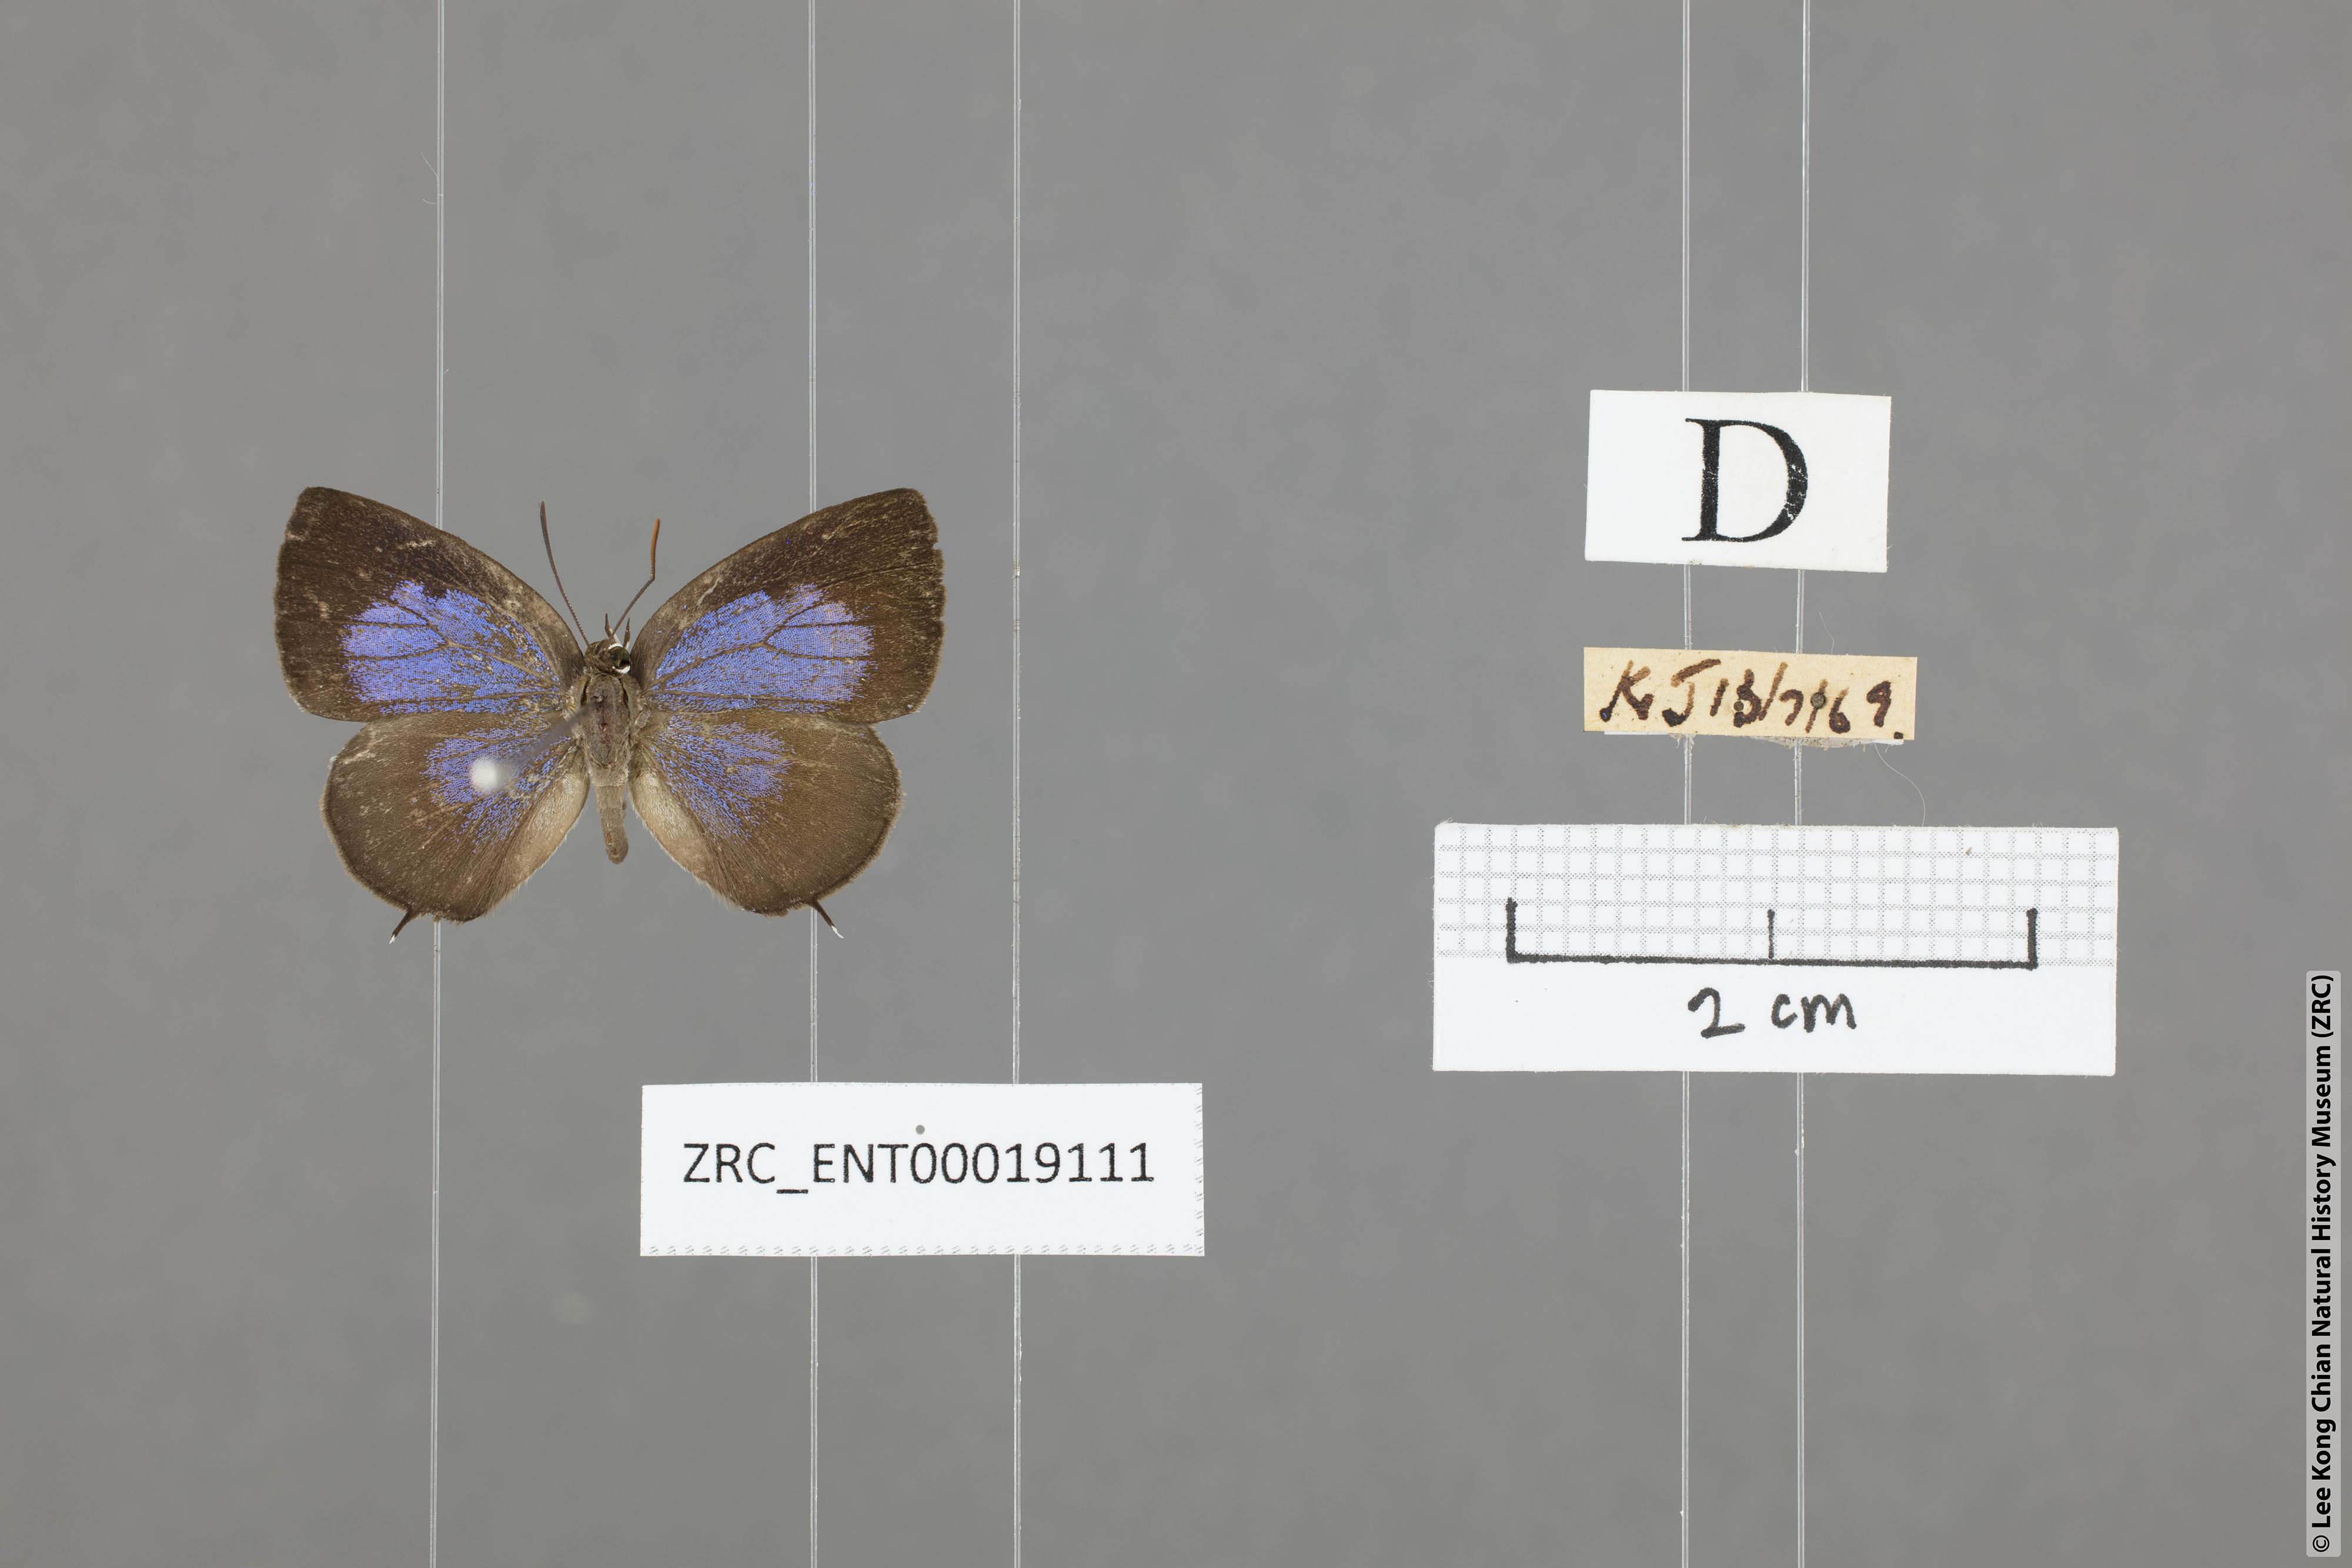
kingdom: Animalia
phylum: Arthropoda
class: Insecta
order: Lepidoptera
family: Lycaenidae
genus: Arhopala
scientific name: Arhopala ammonides
